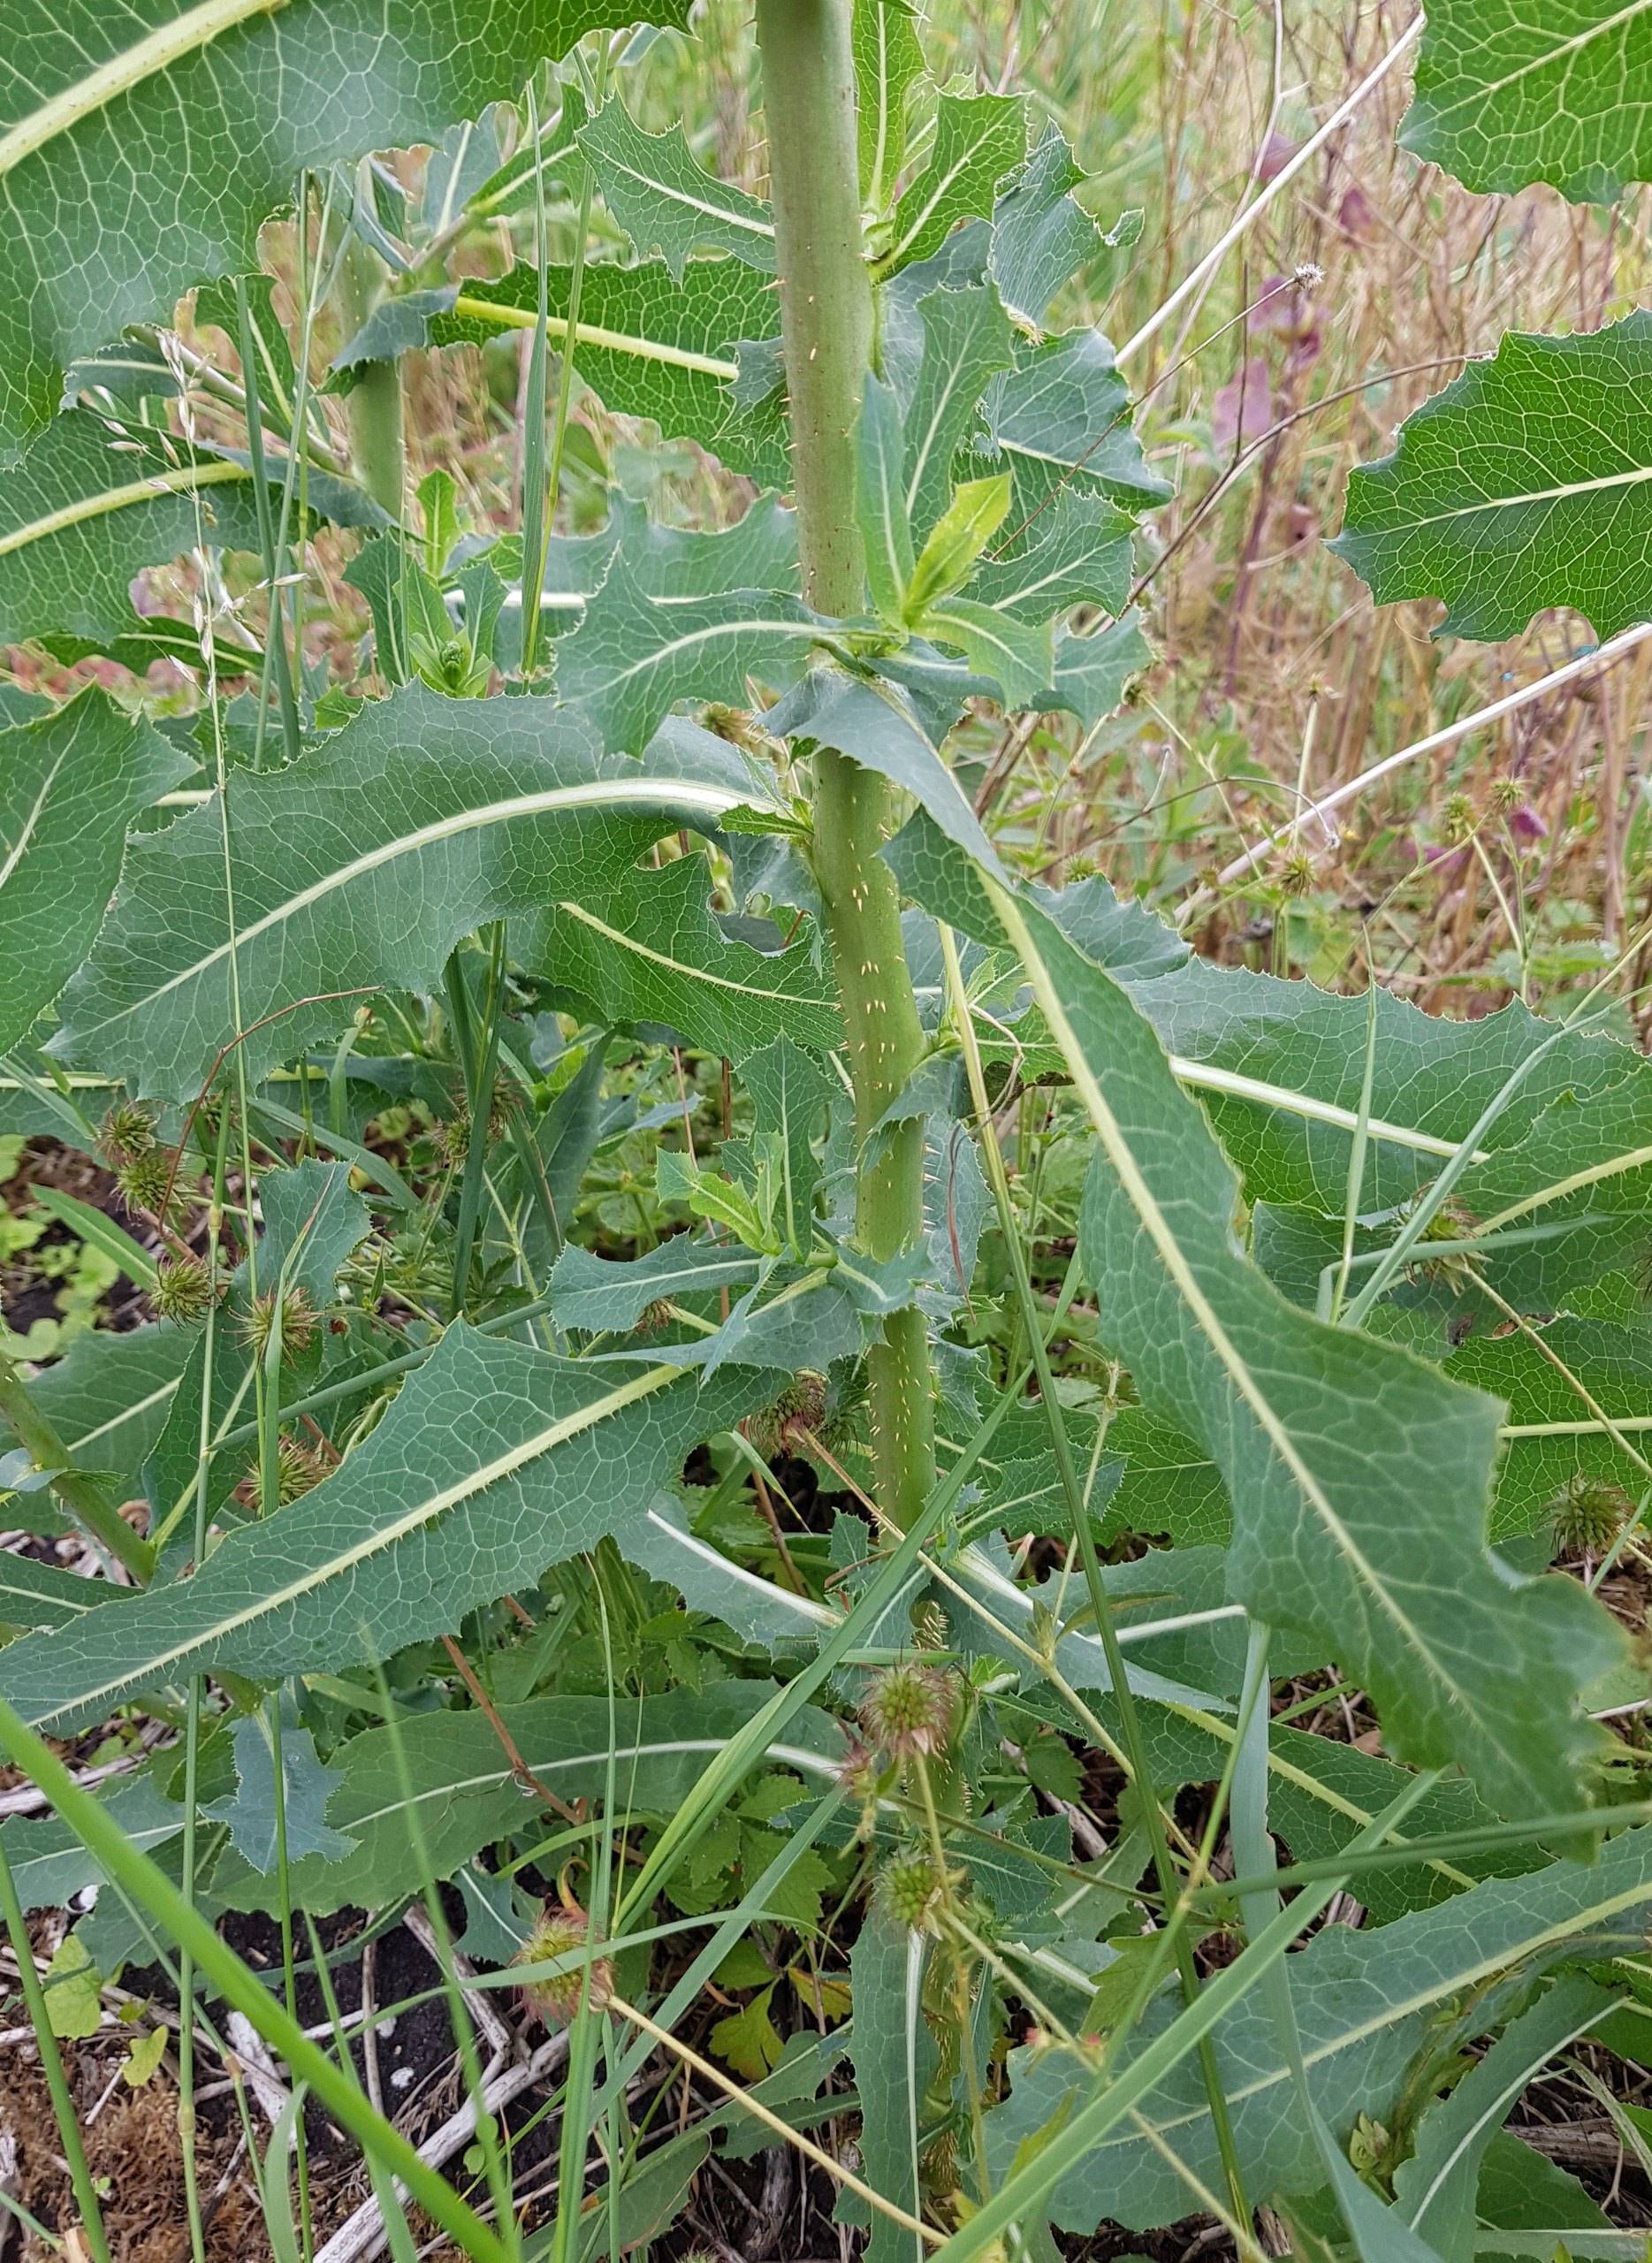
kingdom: Plantae
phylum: Tracheophyta
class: Magnoliopsida
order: Asterales
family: Asteraceae
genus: Lactuca
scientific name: Lactuca serriola
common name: Tornet salat
